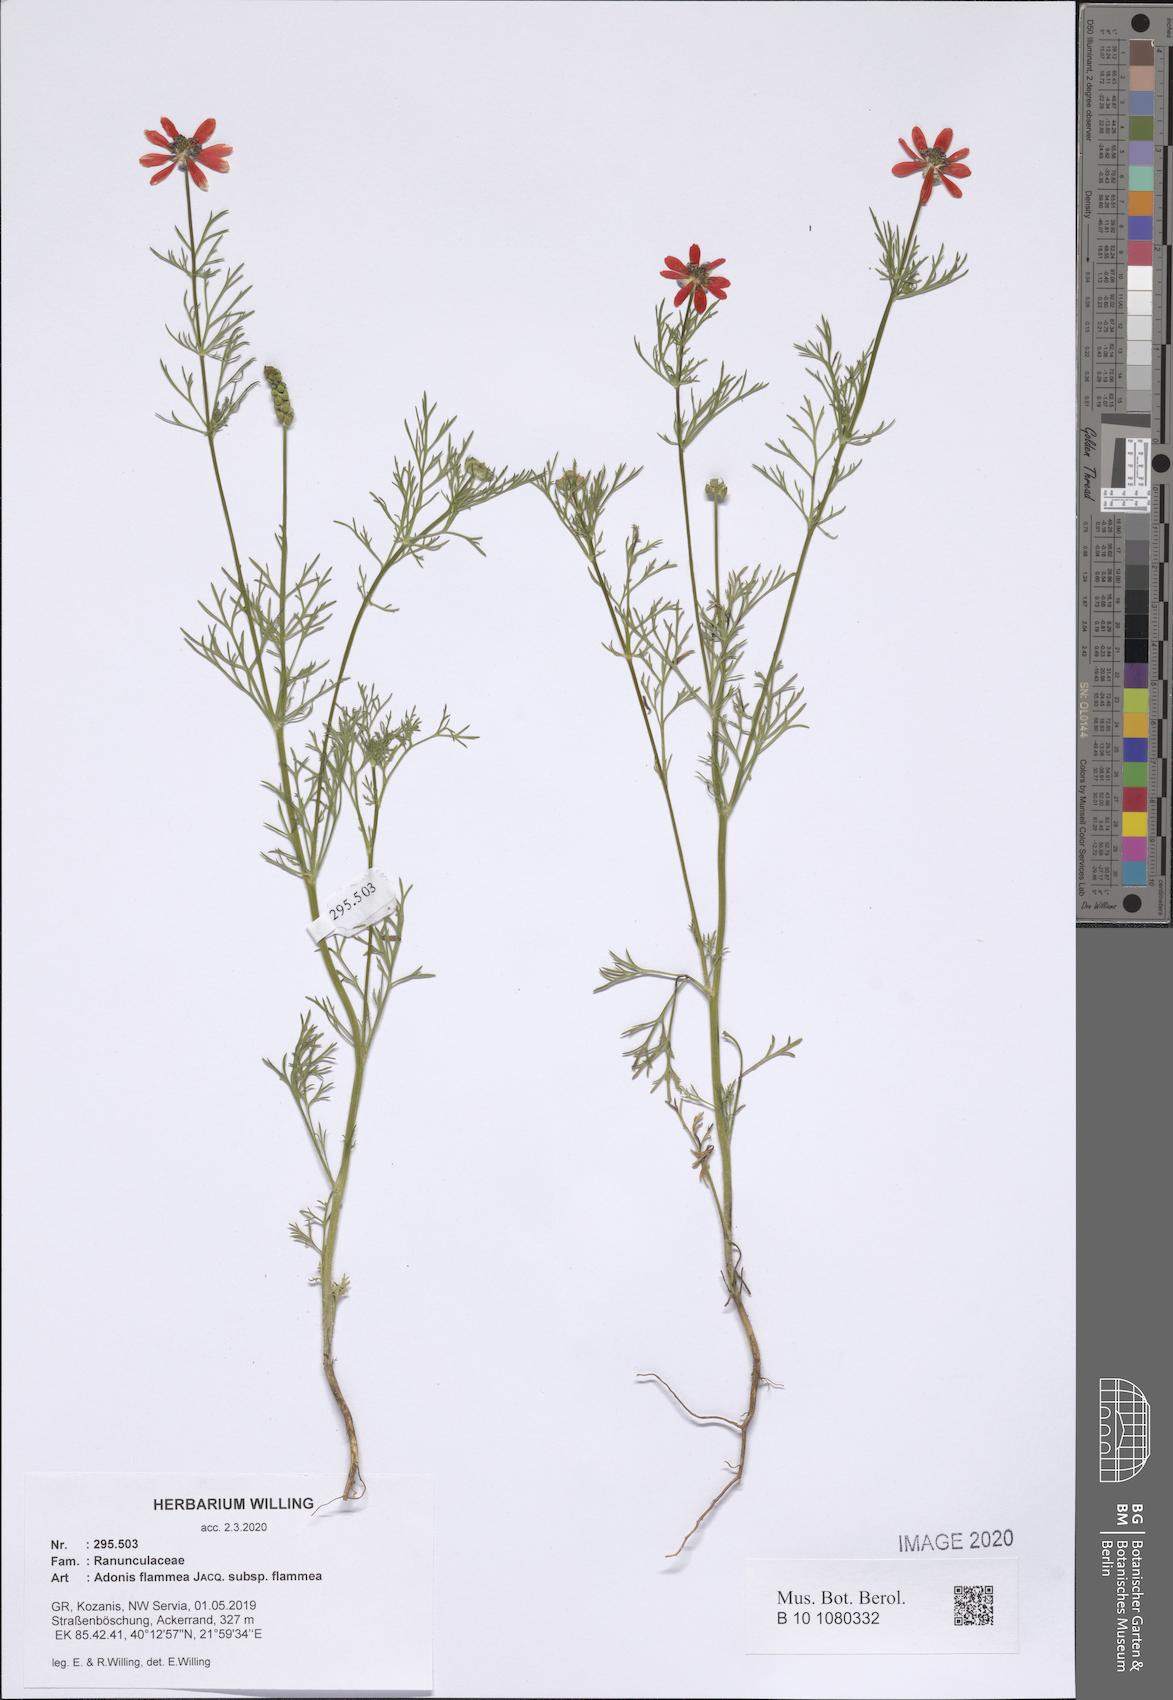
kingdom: Plantae
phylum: Tracheophyta
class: Magnoliopsida
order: Ranunculales
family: Ranunculaceae
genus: Adonis
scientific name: Adonis flammea
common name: Large pheasant's-eye
